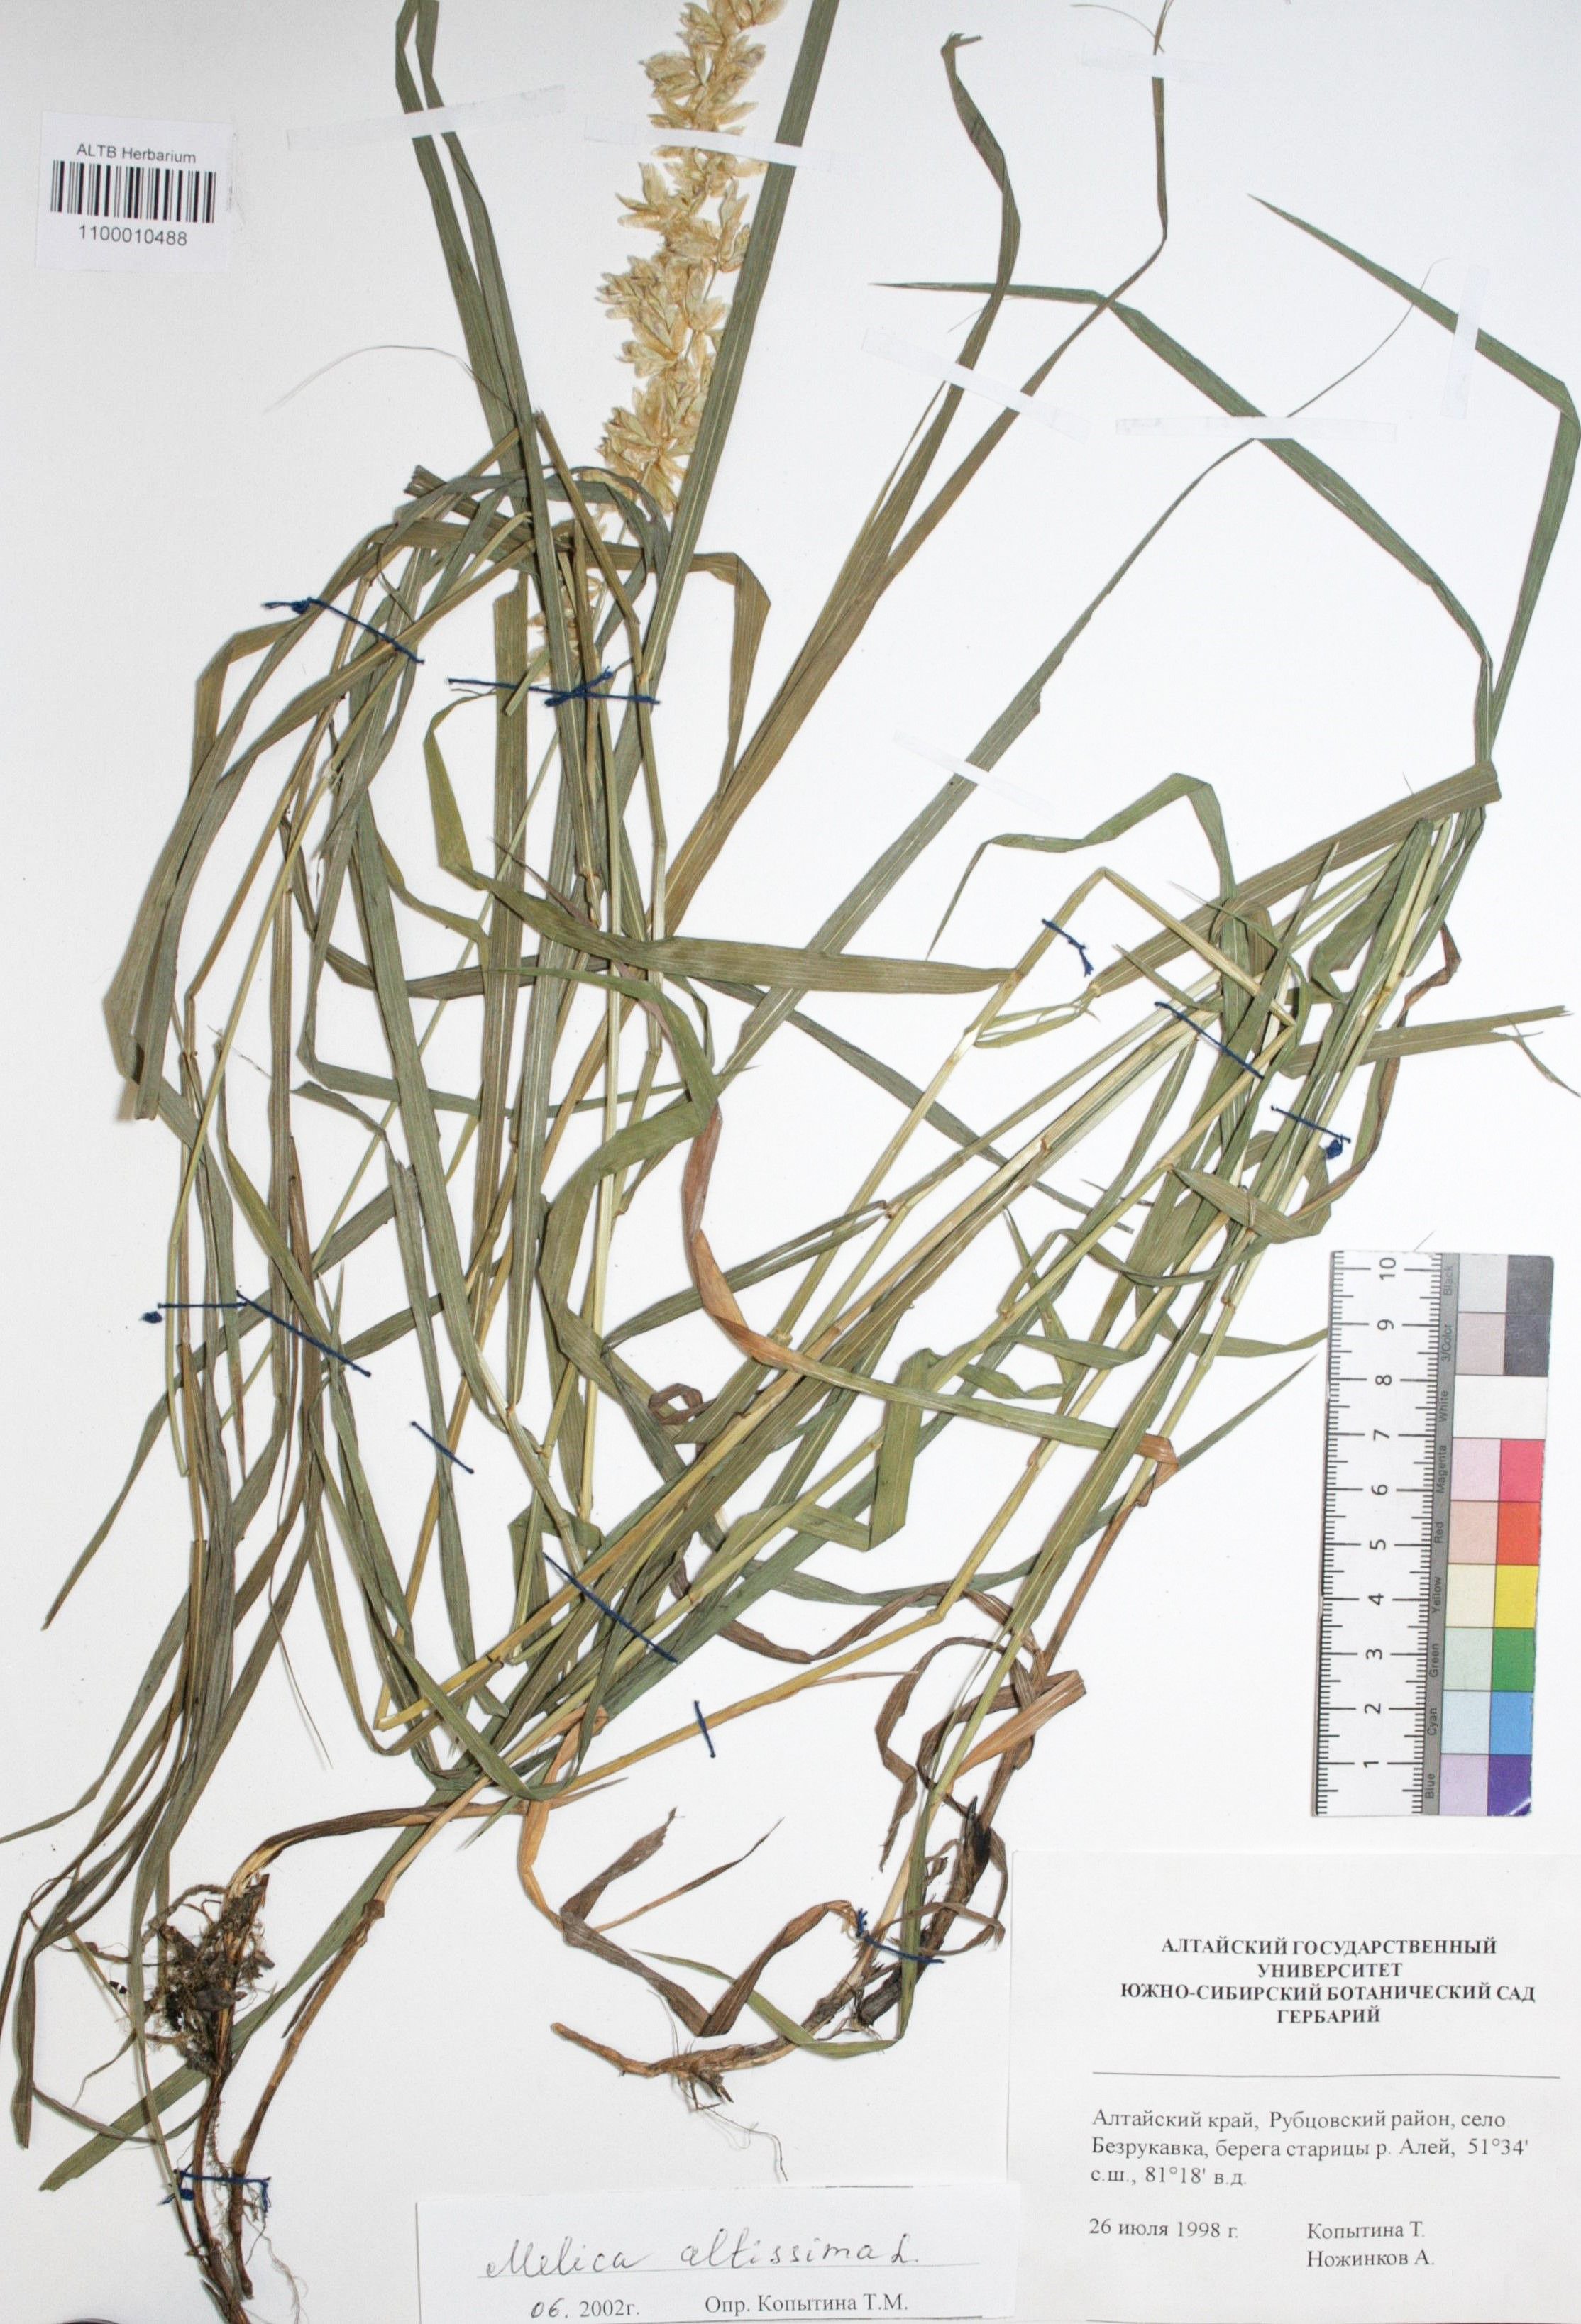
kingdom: Plantae
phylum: Tracheophyta
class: Liliopsida
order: Poales
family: Poaceae
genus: Melica
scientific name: Melica altissima
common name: Siberian melicgrass
